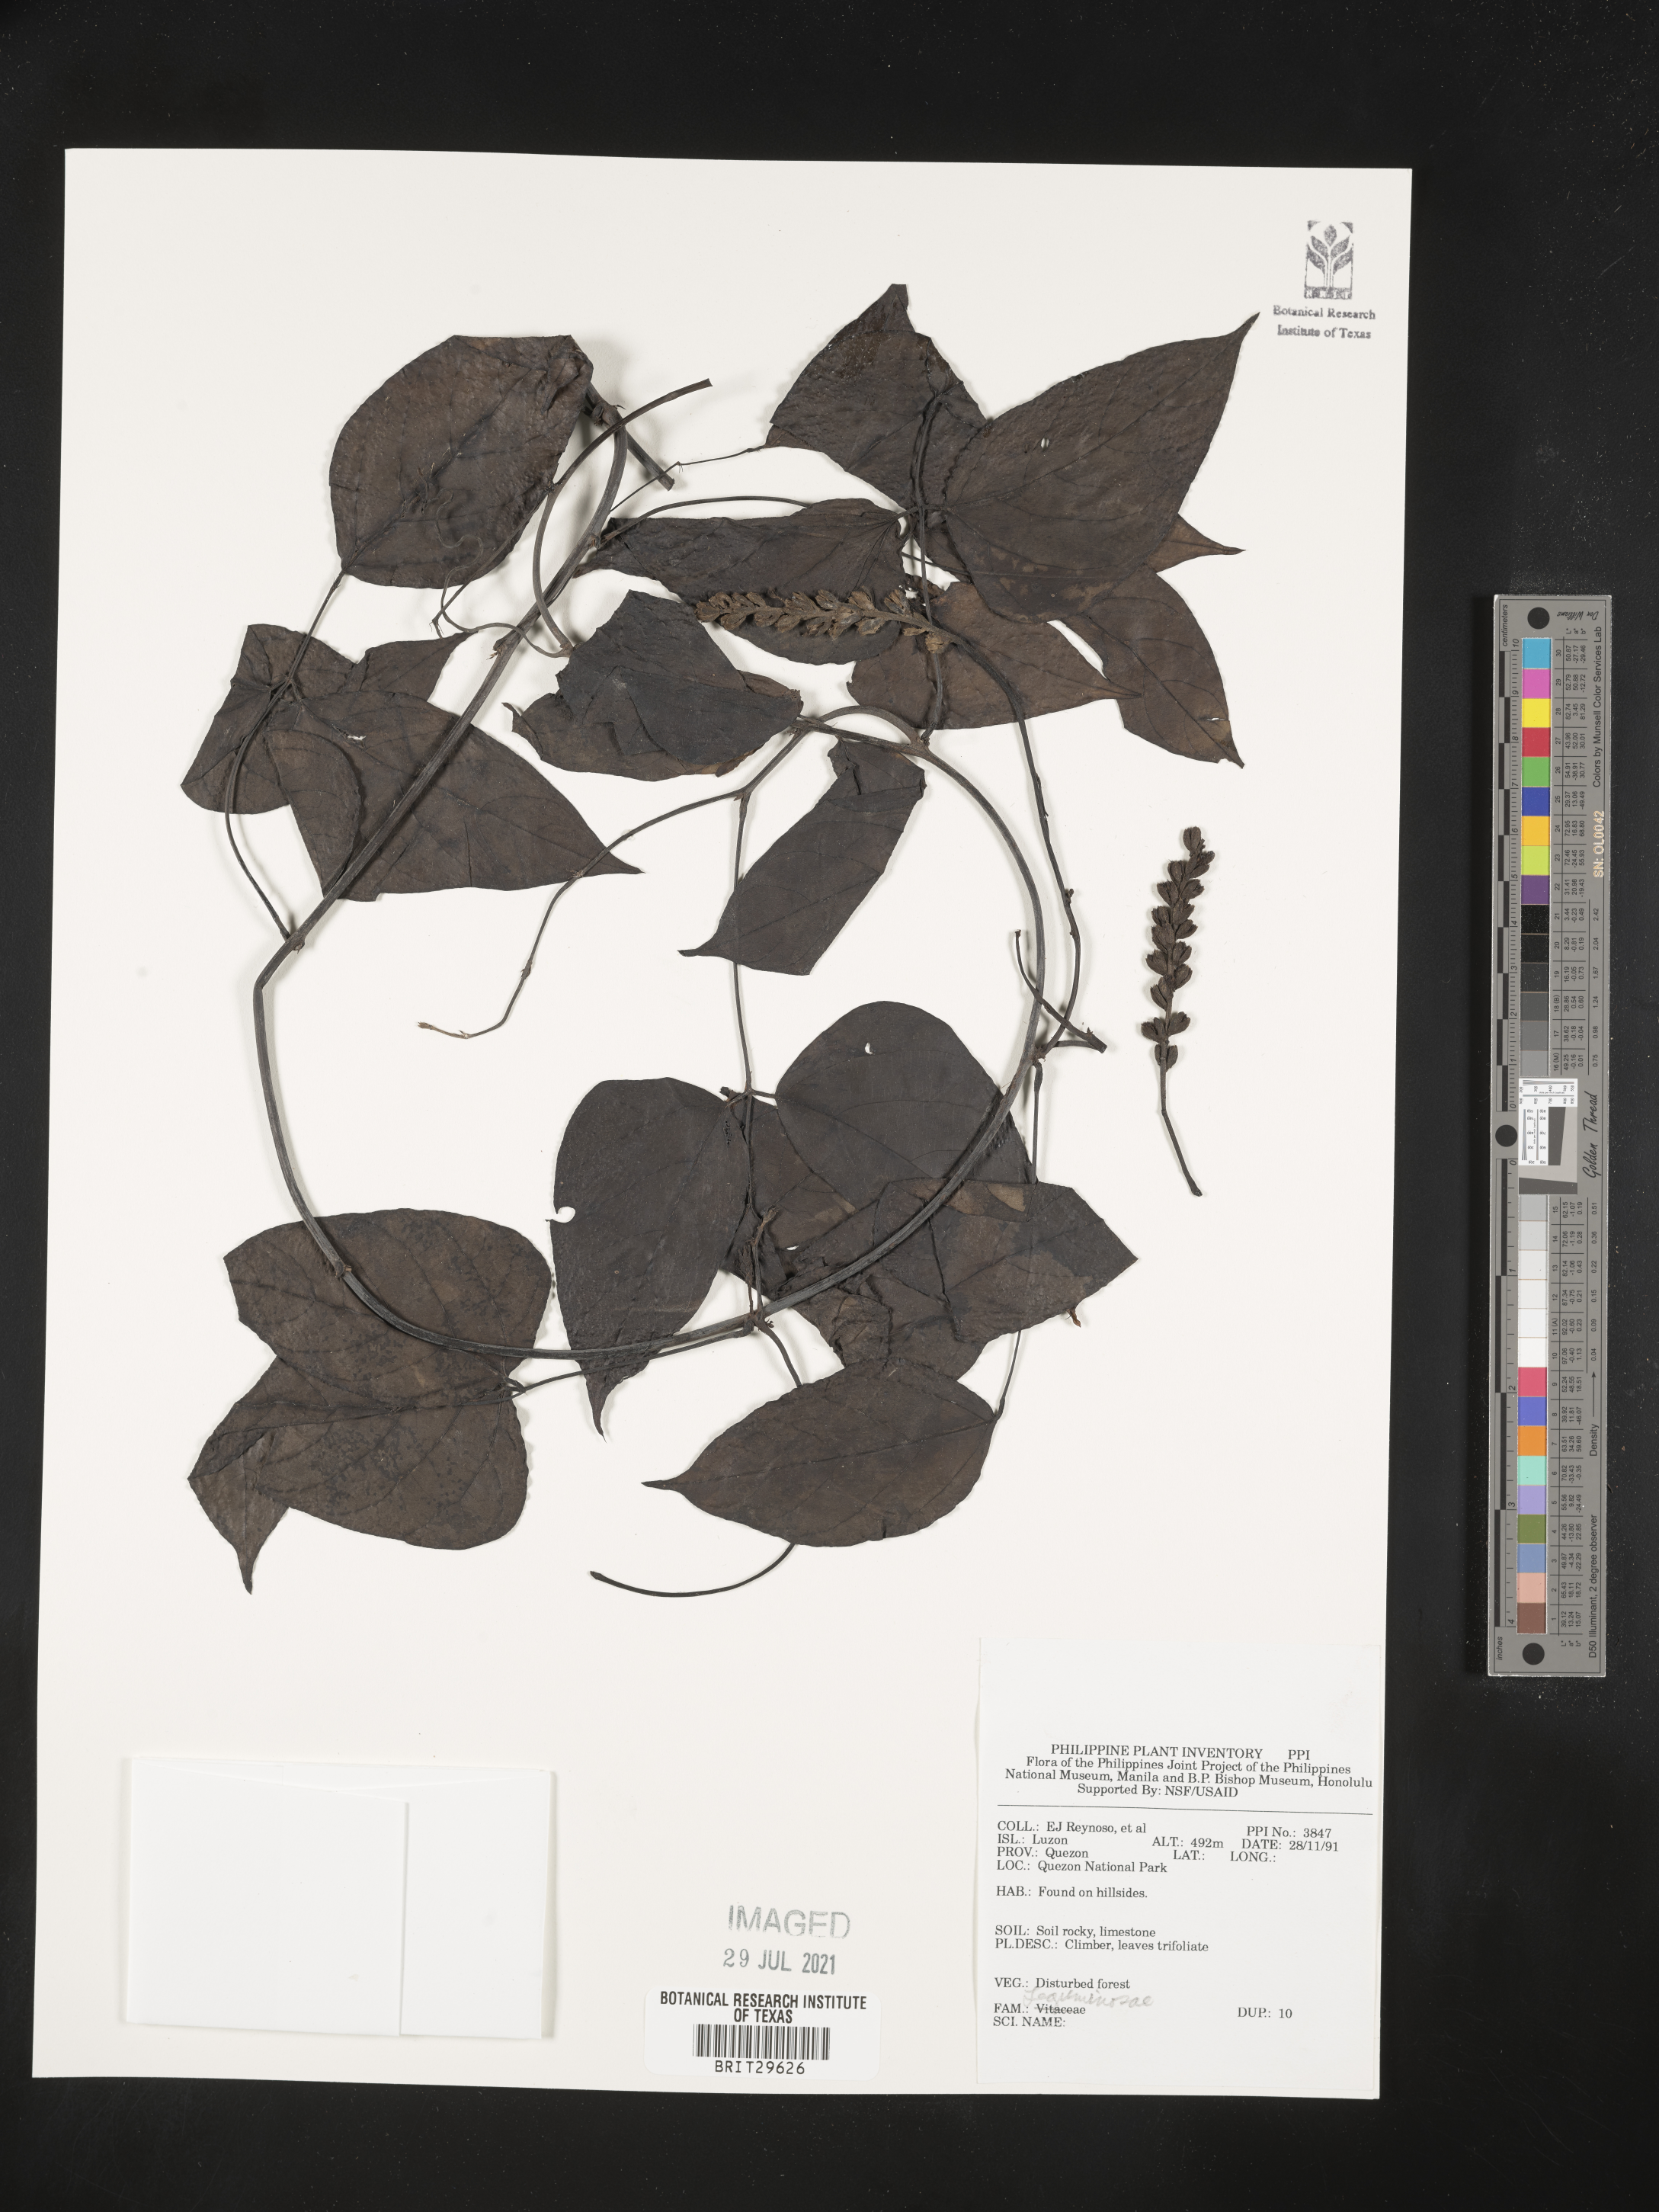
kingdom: Plantae
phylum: Tracheophyta
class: Magnoliopsida
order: Fabales
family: Fabaceae
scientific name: Fabaceae
